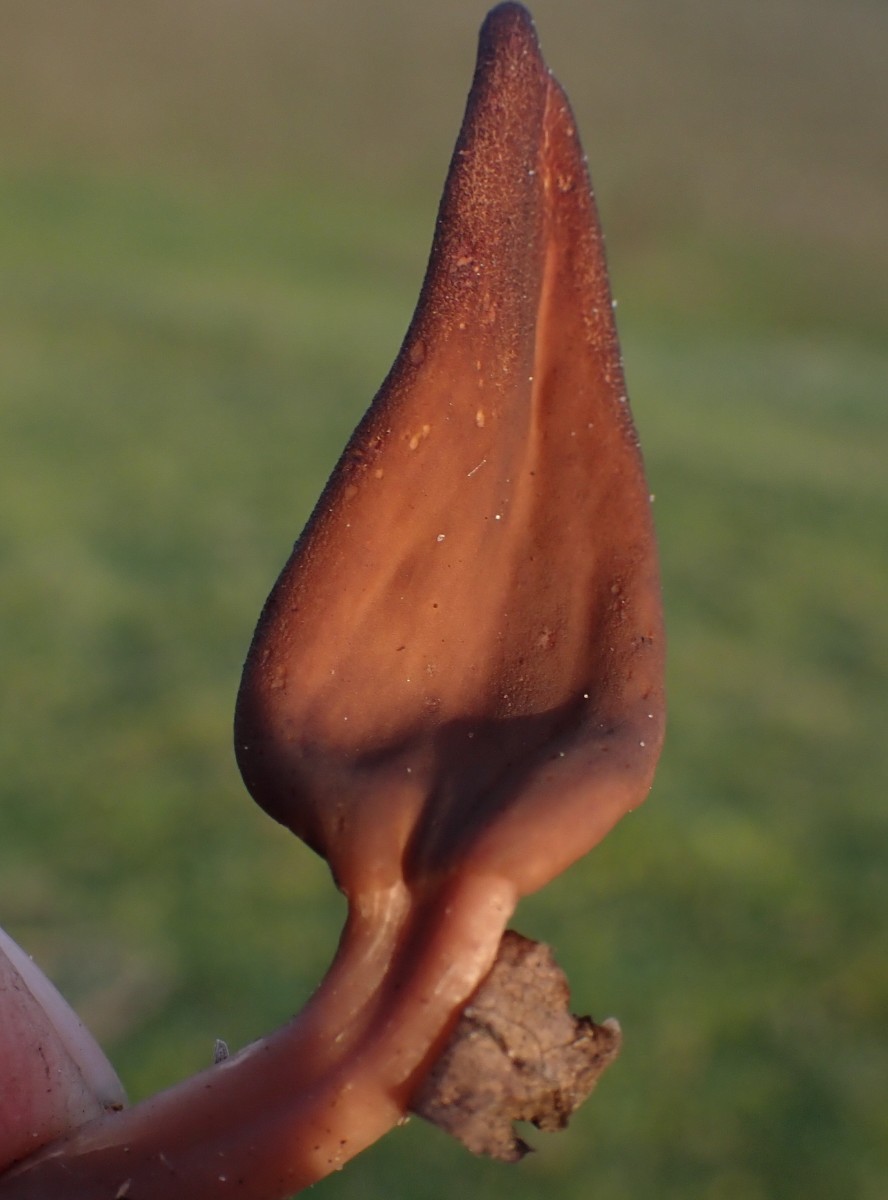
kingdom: Fungi
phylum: Ascomycota
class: Leotiomycetes
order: Leotiales
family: Leotiaceae
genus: Microglossum
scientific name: Microglossum olivaceum
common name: olivenbrun farvetunge
